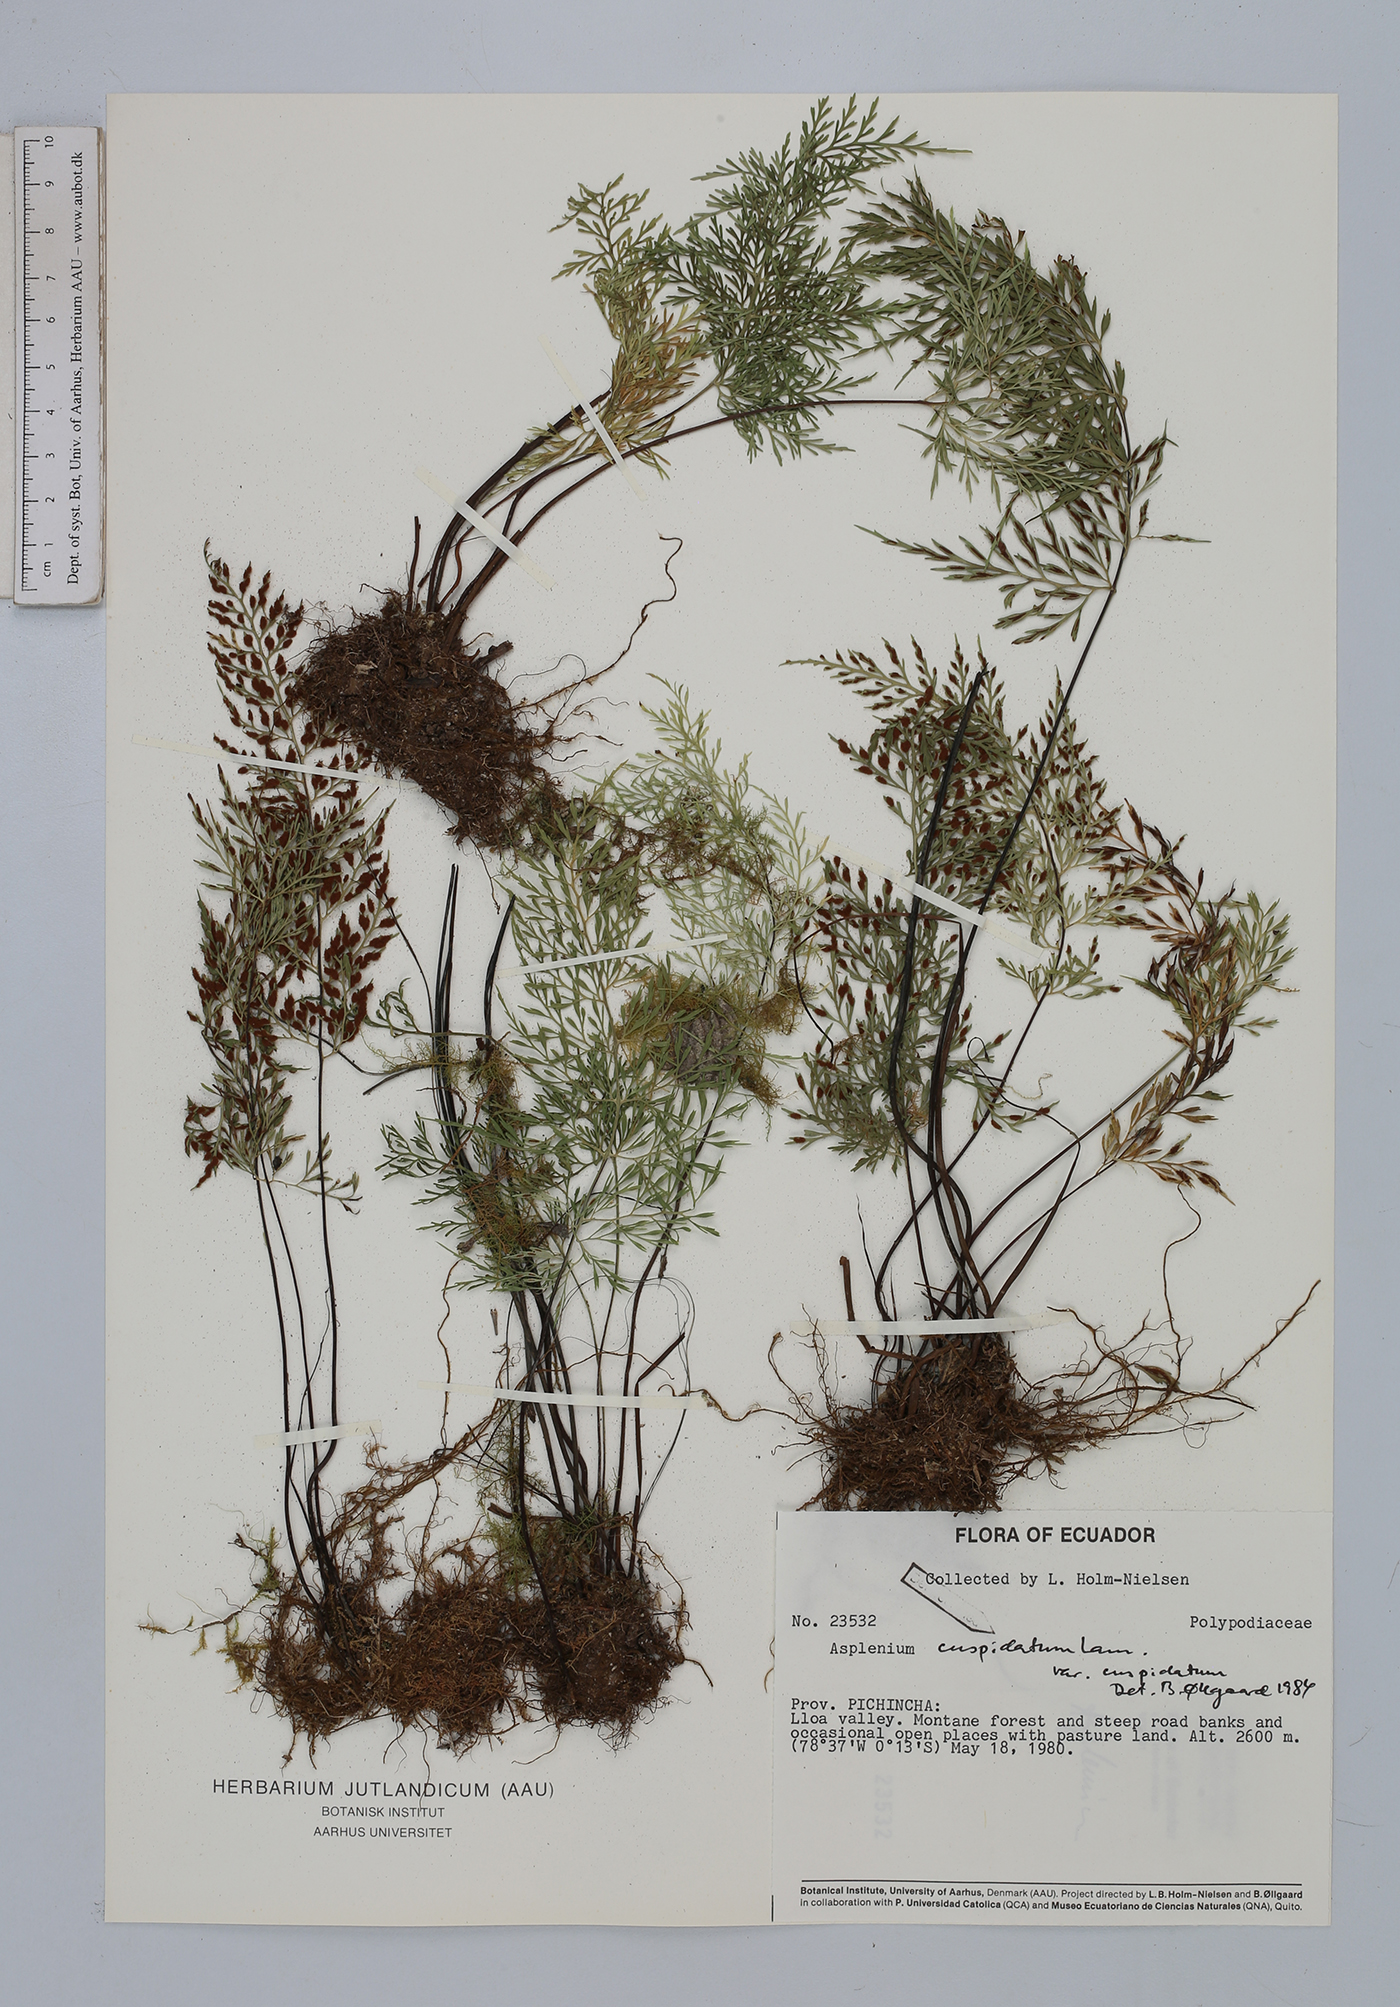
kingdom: Plantae
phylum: Tracheophyta
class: Polypodiopsida
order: Polypodiales
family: Aspleniaceae
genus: Asplenium
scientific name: Asplenium cuspidatum
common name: Eared spleenwort
